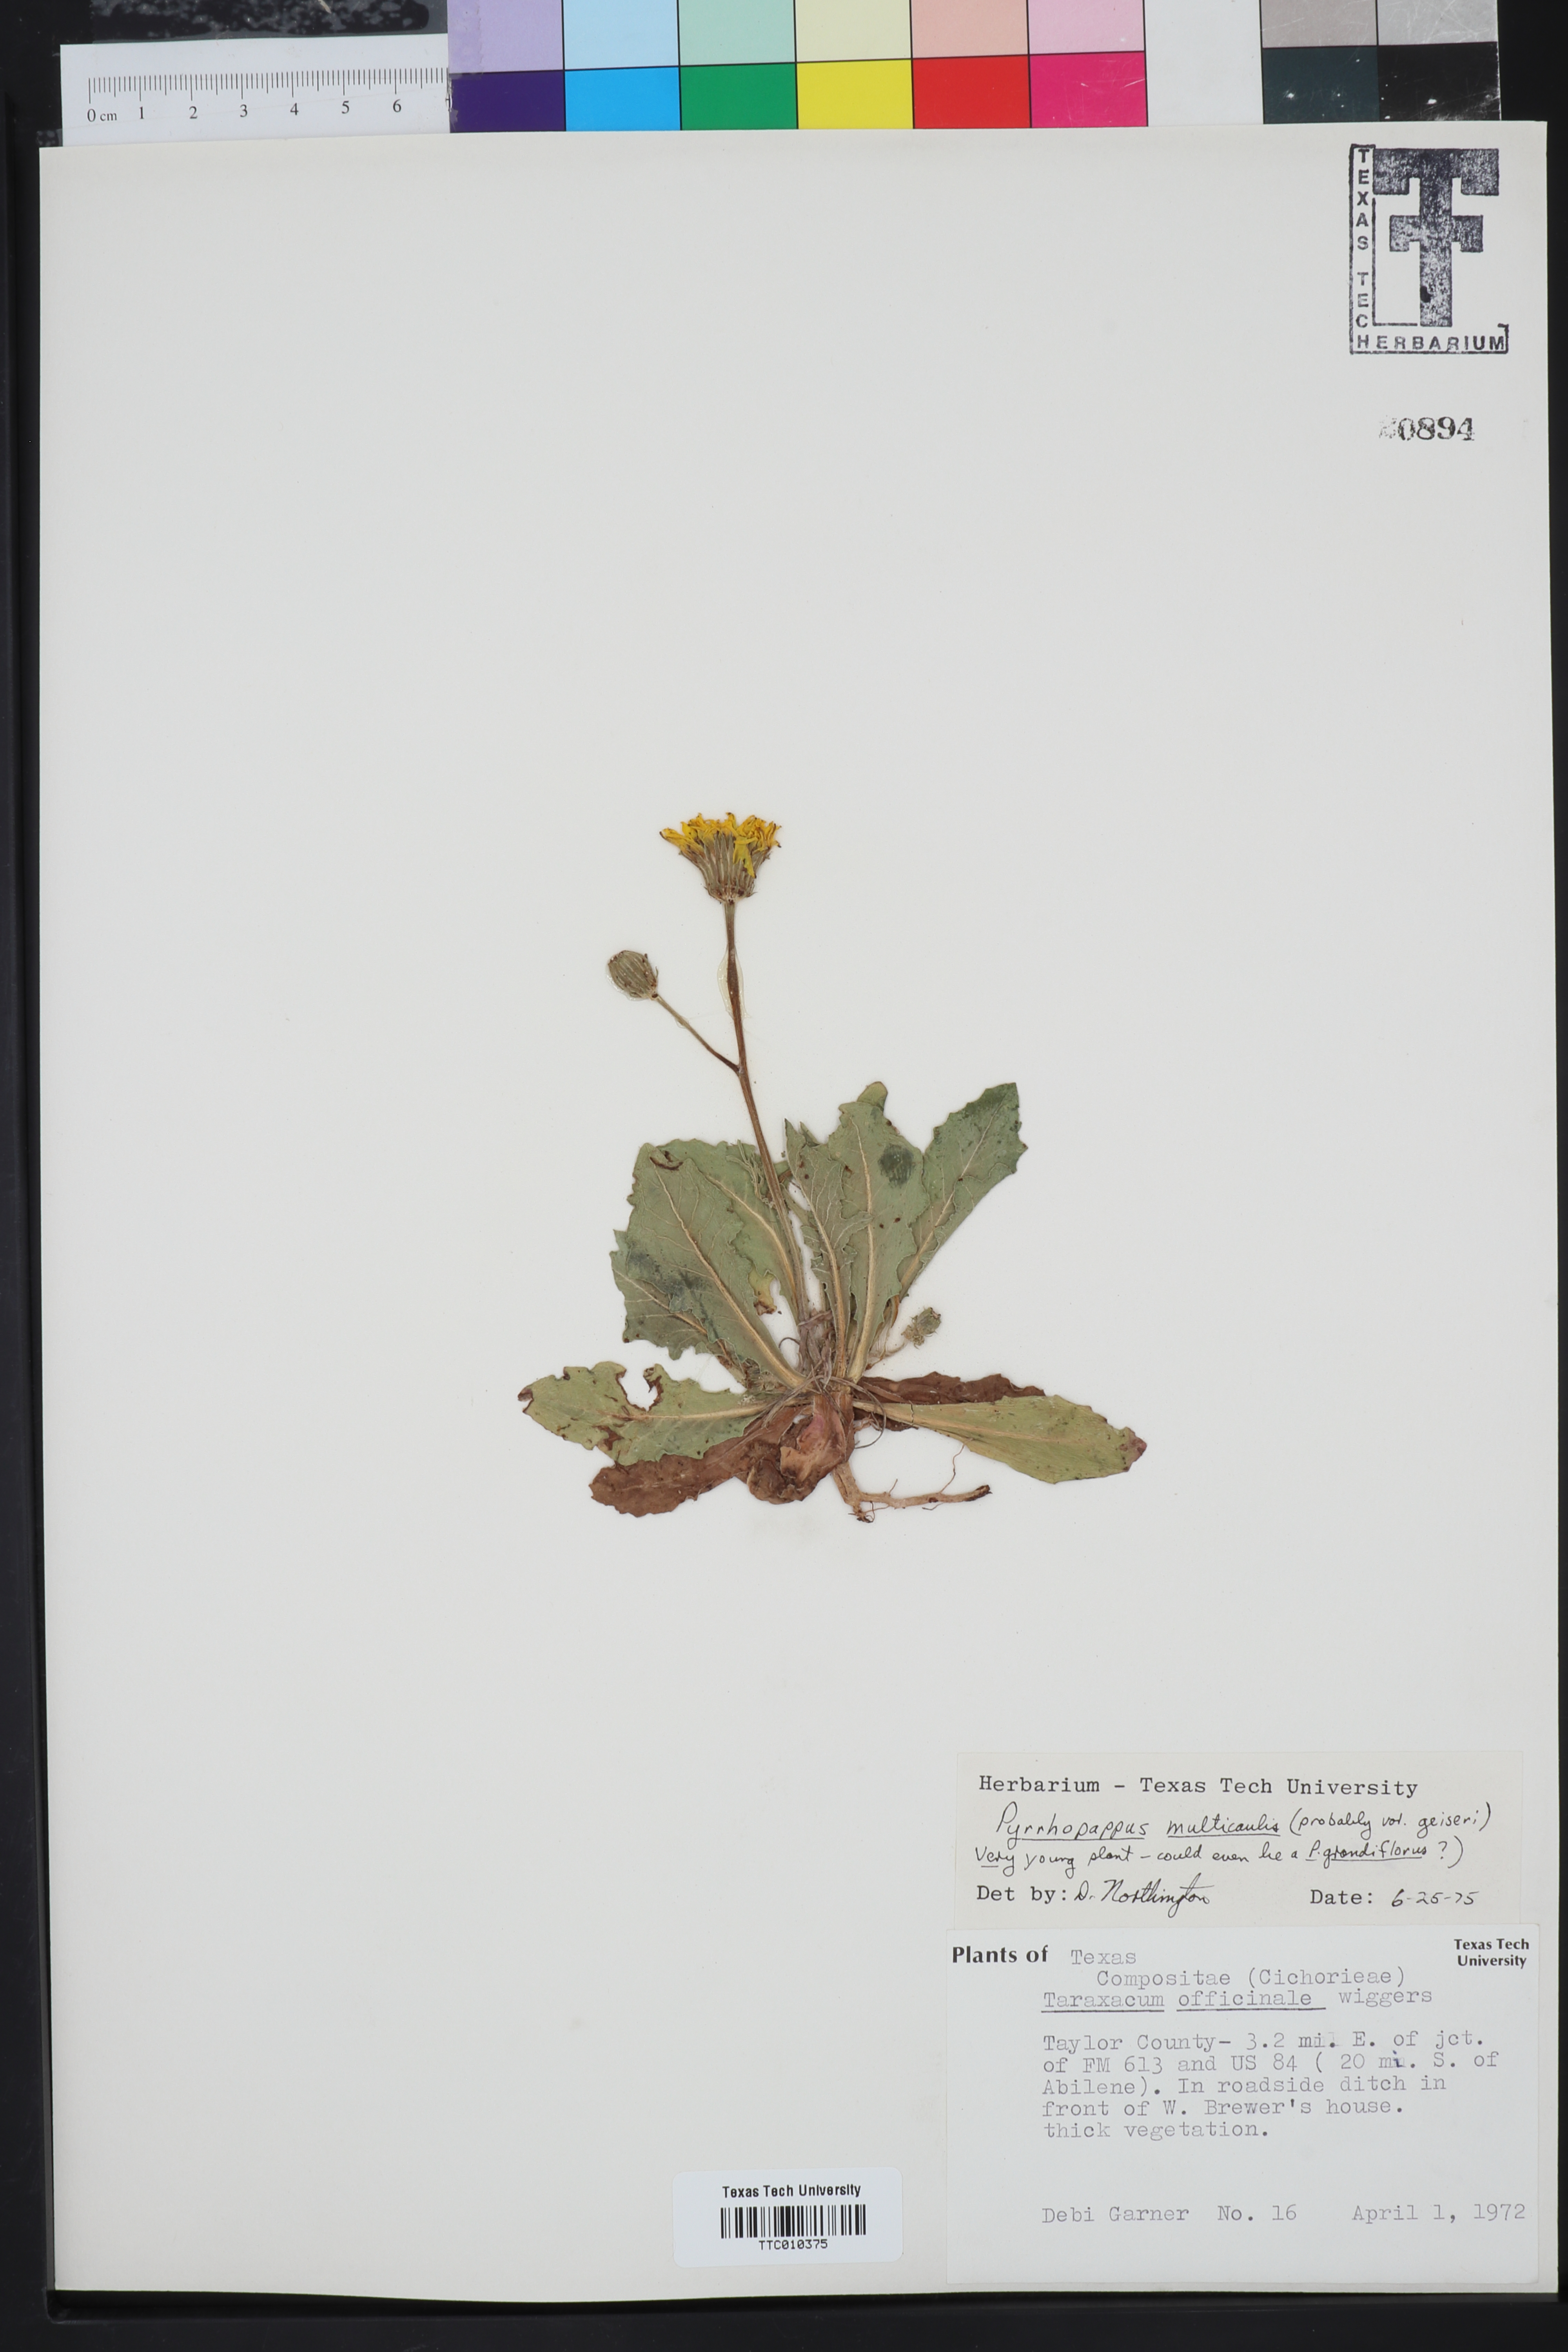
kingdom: Plantae
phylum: Tracheophyta
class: Magnoliopsida
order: Asterales
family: Asteraceae
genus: Pyrrhopappus
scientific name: Pyrrhopappus pauciflorus
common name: Texas false dandelion
